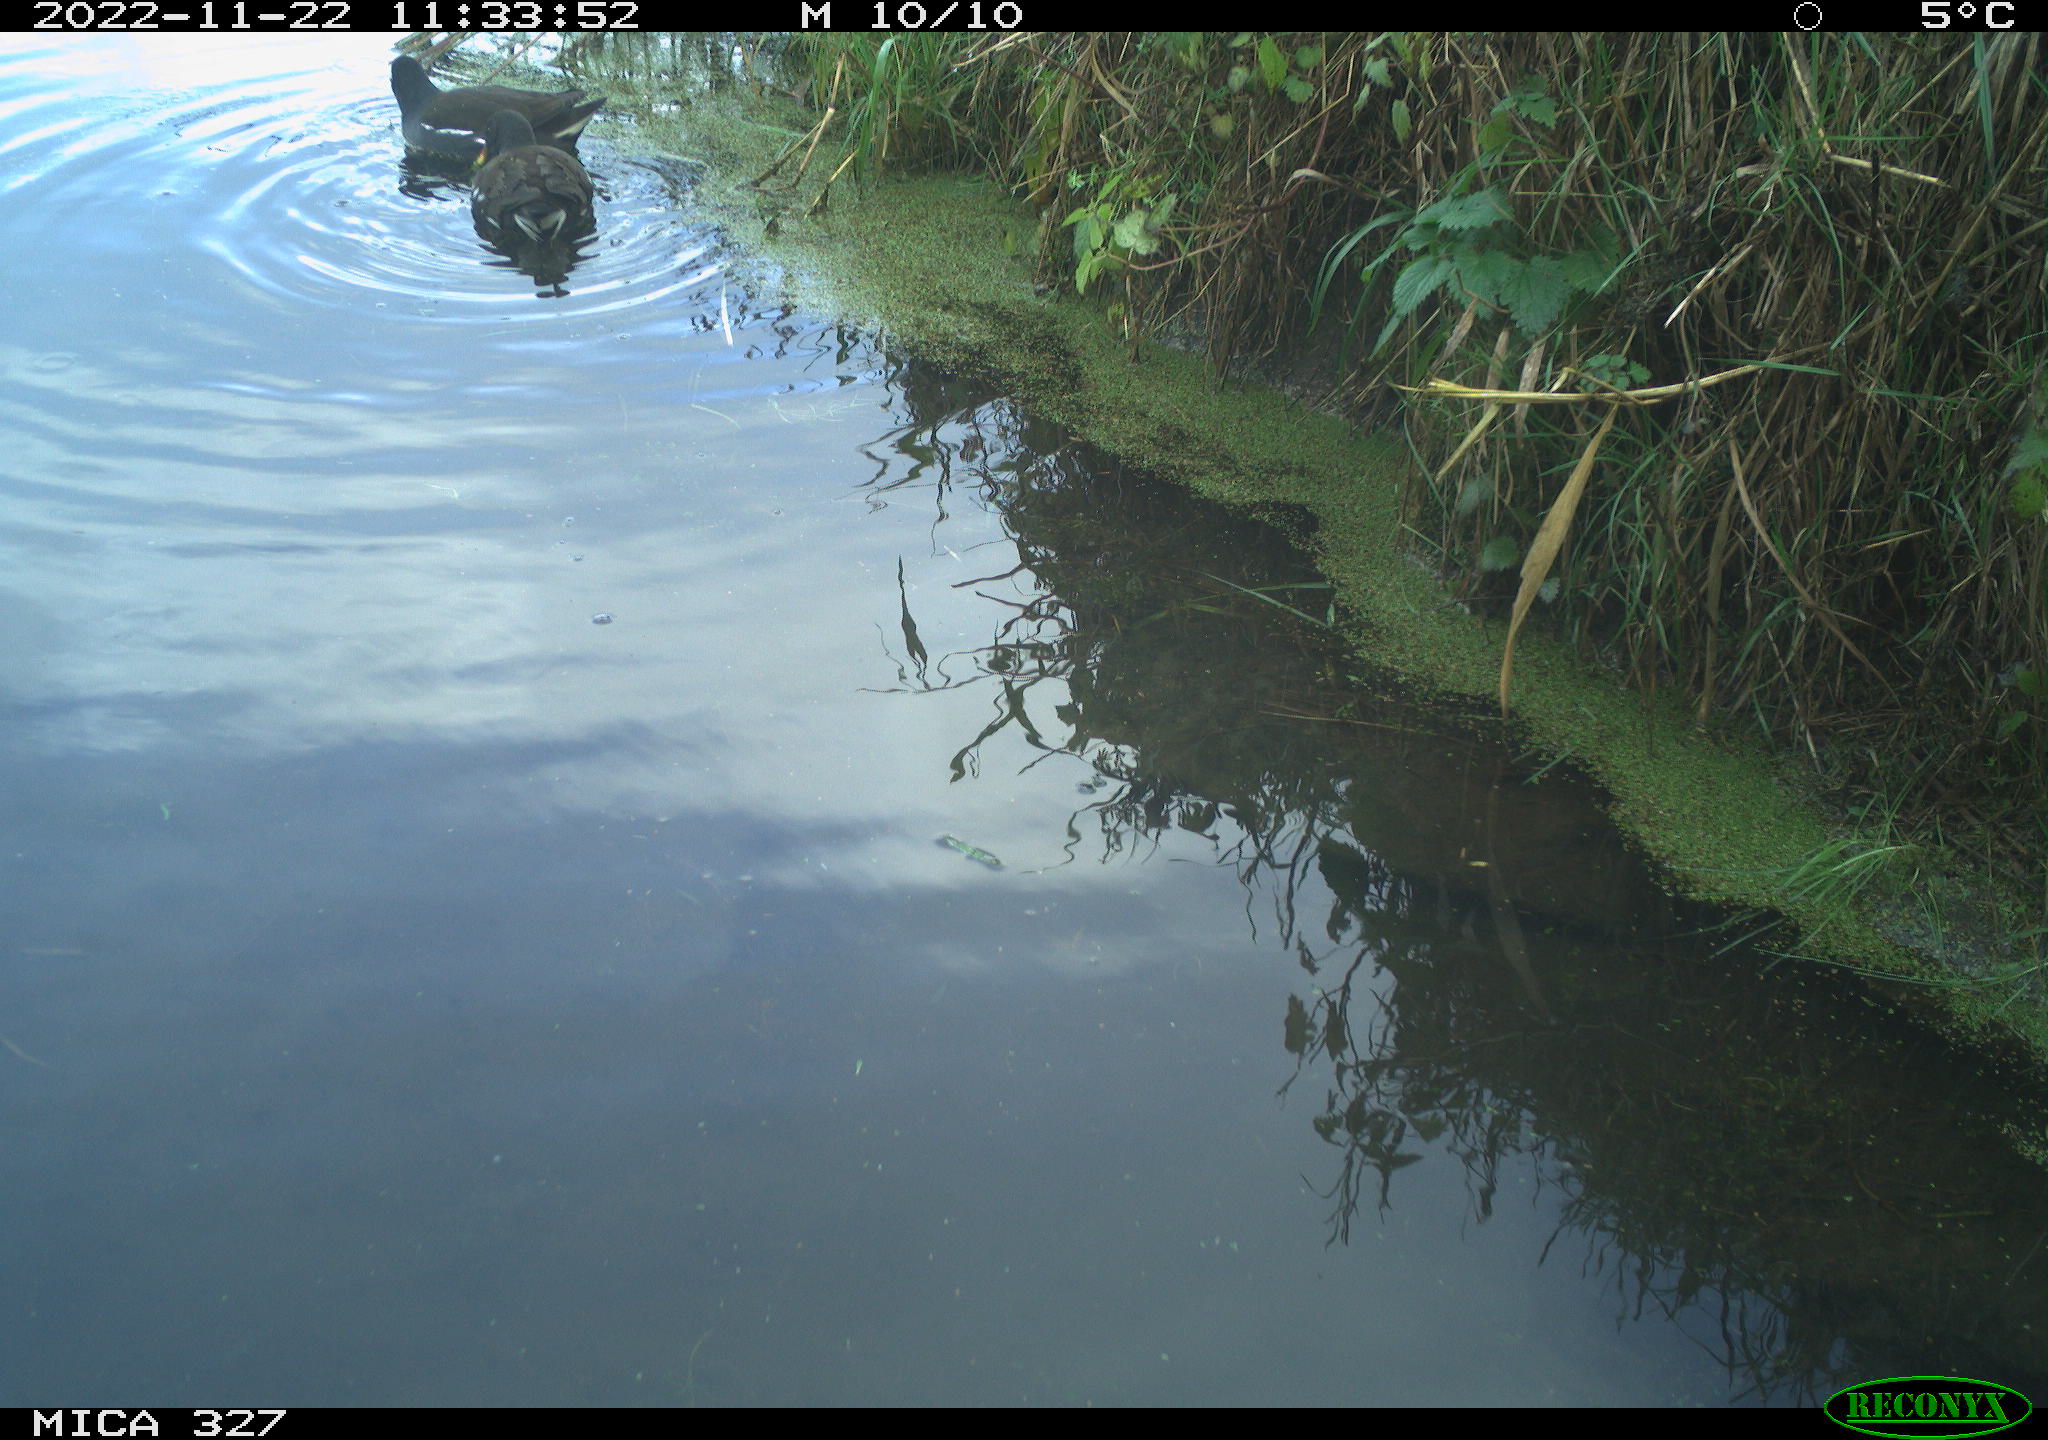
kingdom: Animalia
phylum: Chordata
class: Aves
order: Gruiformes
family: Rallidae
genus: Gallinula
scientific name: Gallinula chloropus
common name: Common moorhen
